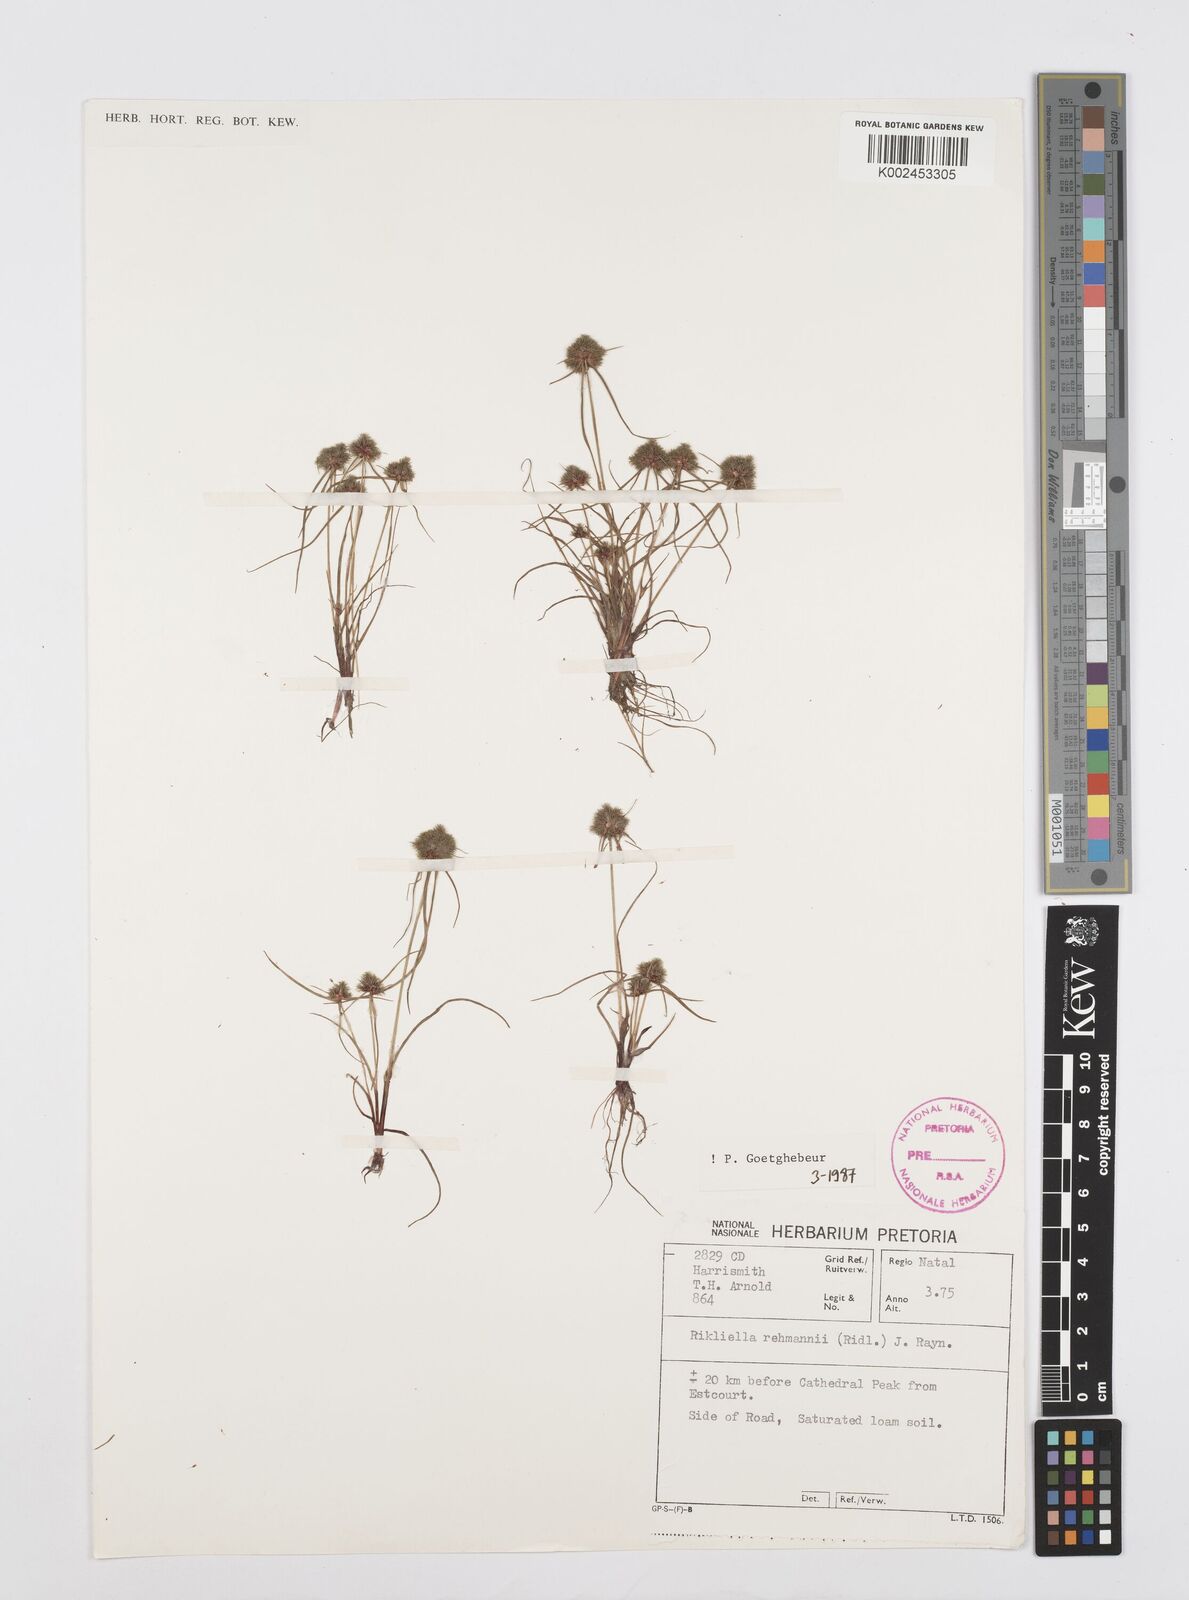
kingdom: Plantae
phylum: Tracheophyta
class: Liliopsida
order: Poales
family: Cyperaceae
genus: Cyperus
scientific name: Cyperus sanguinolentus
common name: Purpleglume flatsedge
